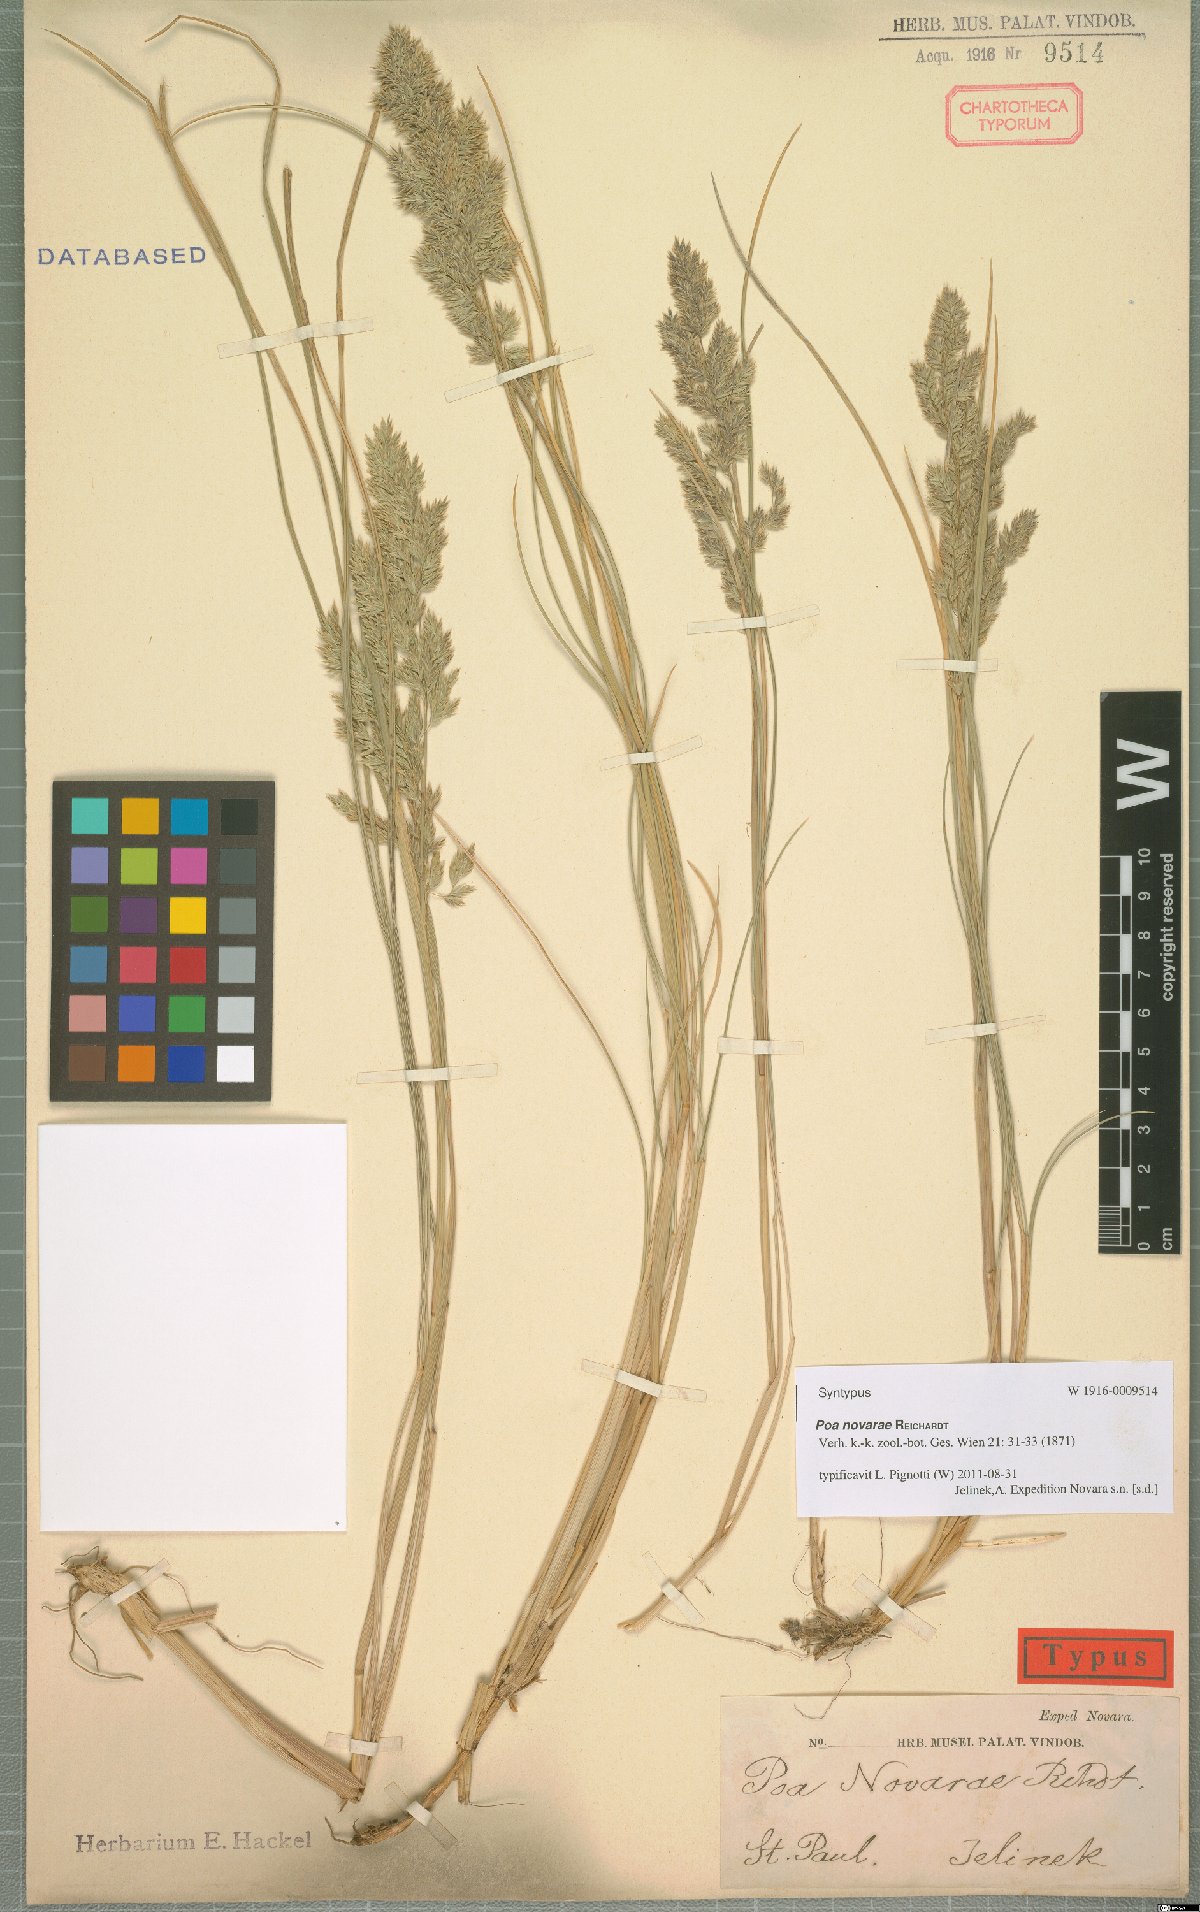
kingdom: Plantae
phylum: Tracheophyta
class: Liliopsida
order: Poales
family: Poaceae
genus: Poa
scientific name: Poa novarae
